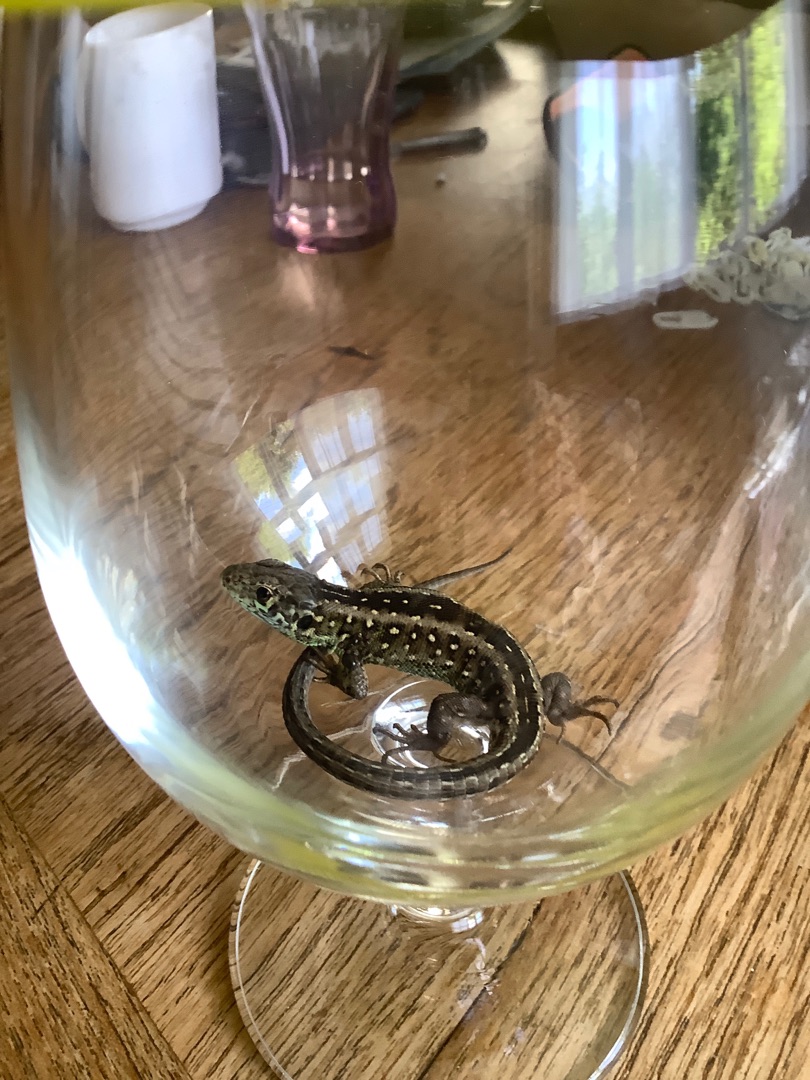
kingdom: Animalia
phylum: Chordata
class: Squamata
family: Lacertidae
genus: Lacerta
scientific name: Lacerta agilis
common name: Markfirben
